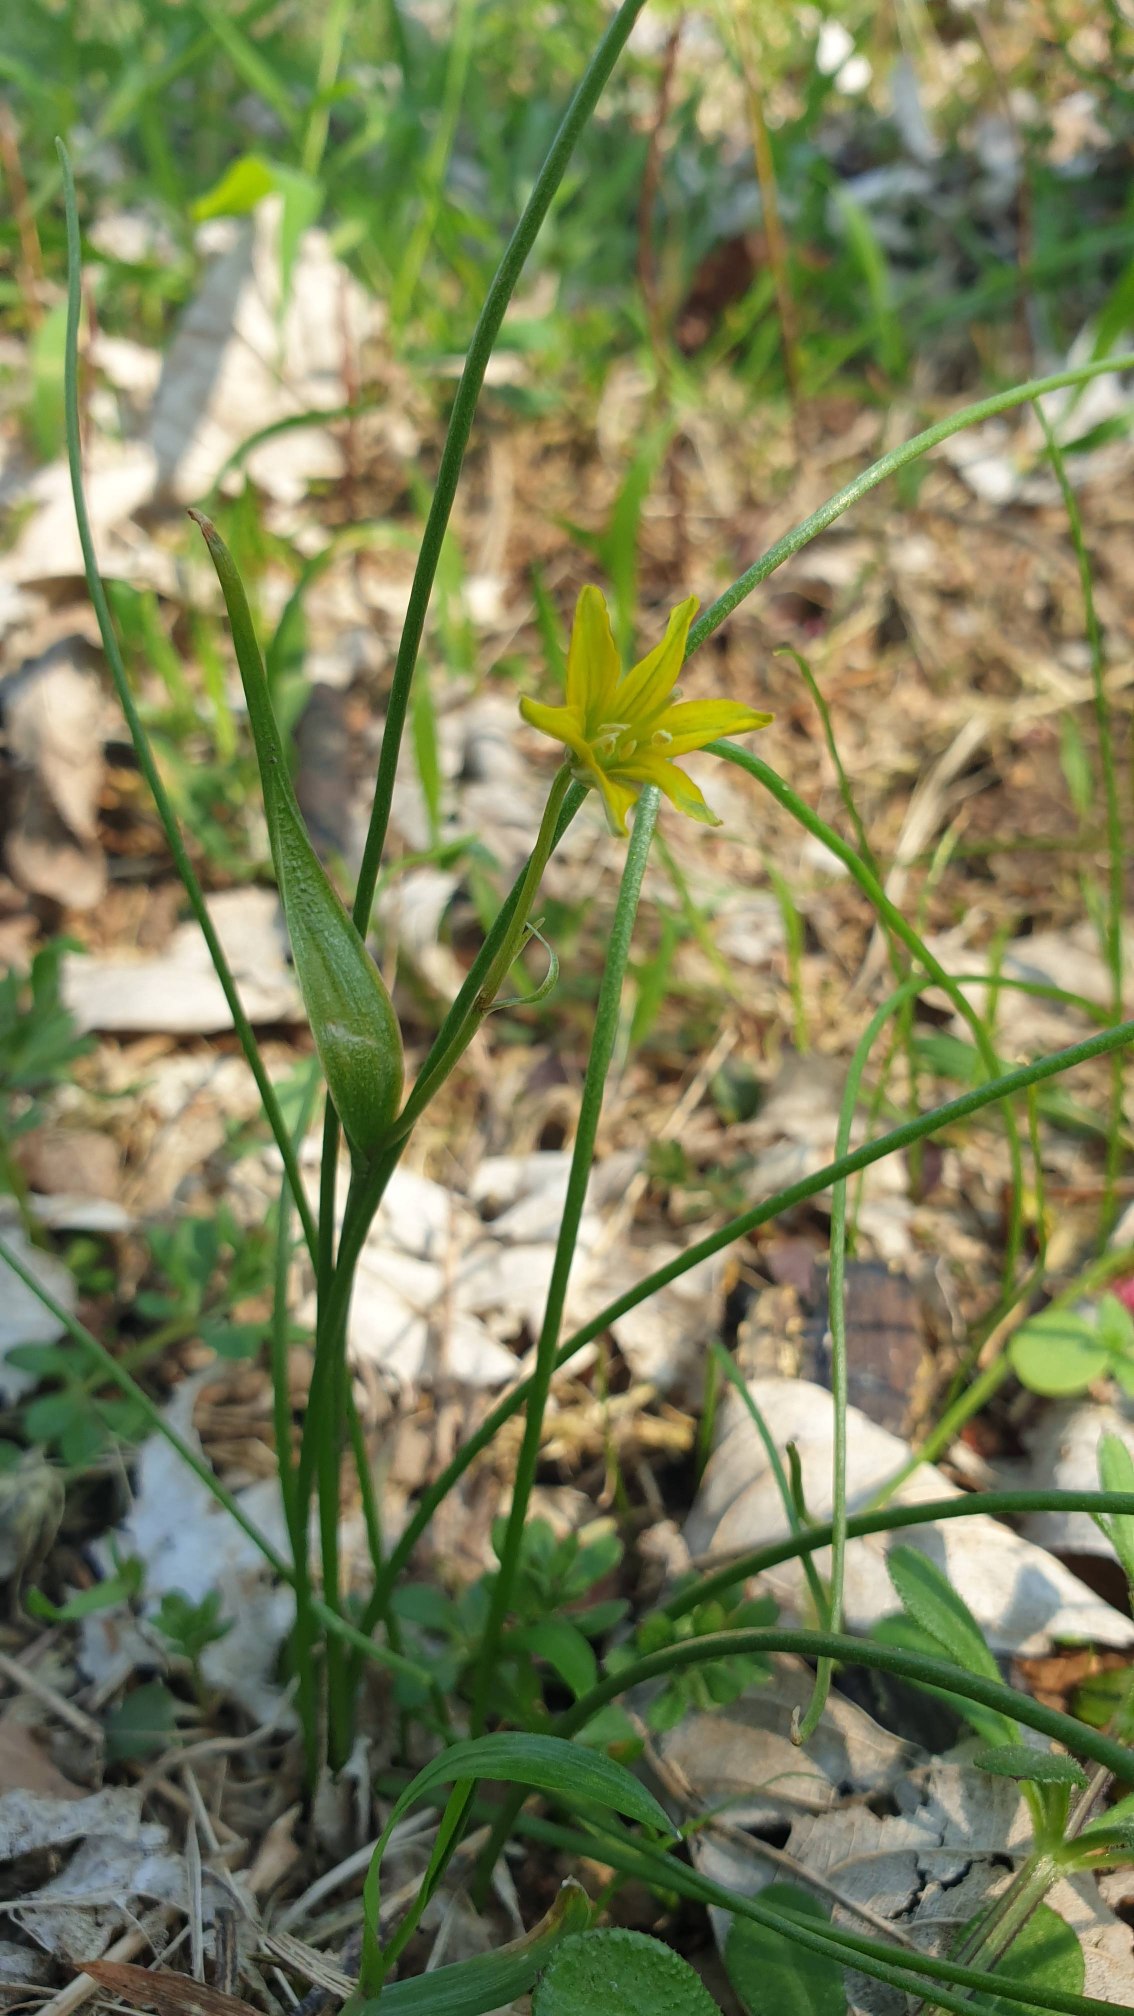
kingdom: Plantae
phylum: Tracheophyta
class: Liliopsida
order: Liliales
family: Liliaceae
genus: Gagea
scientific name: Gagea spathacea
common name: Hylster-guldstjerne
